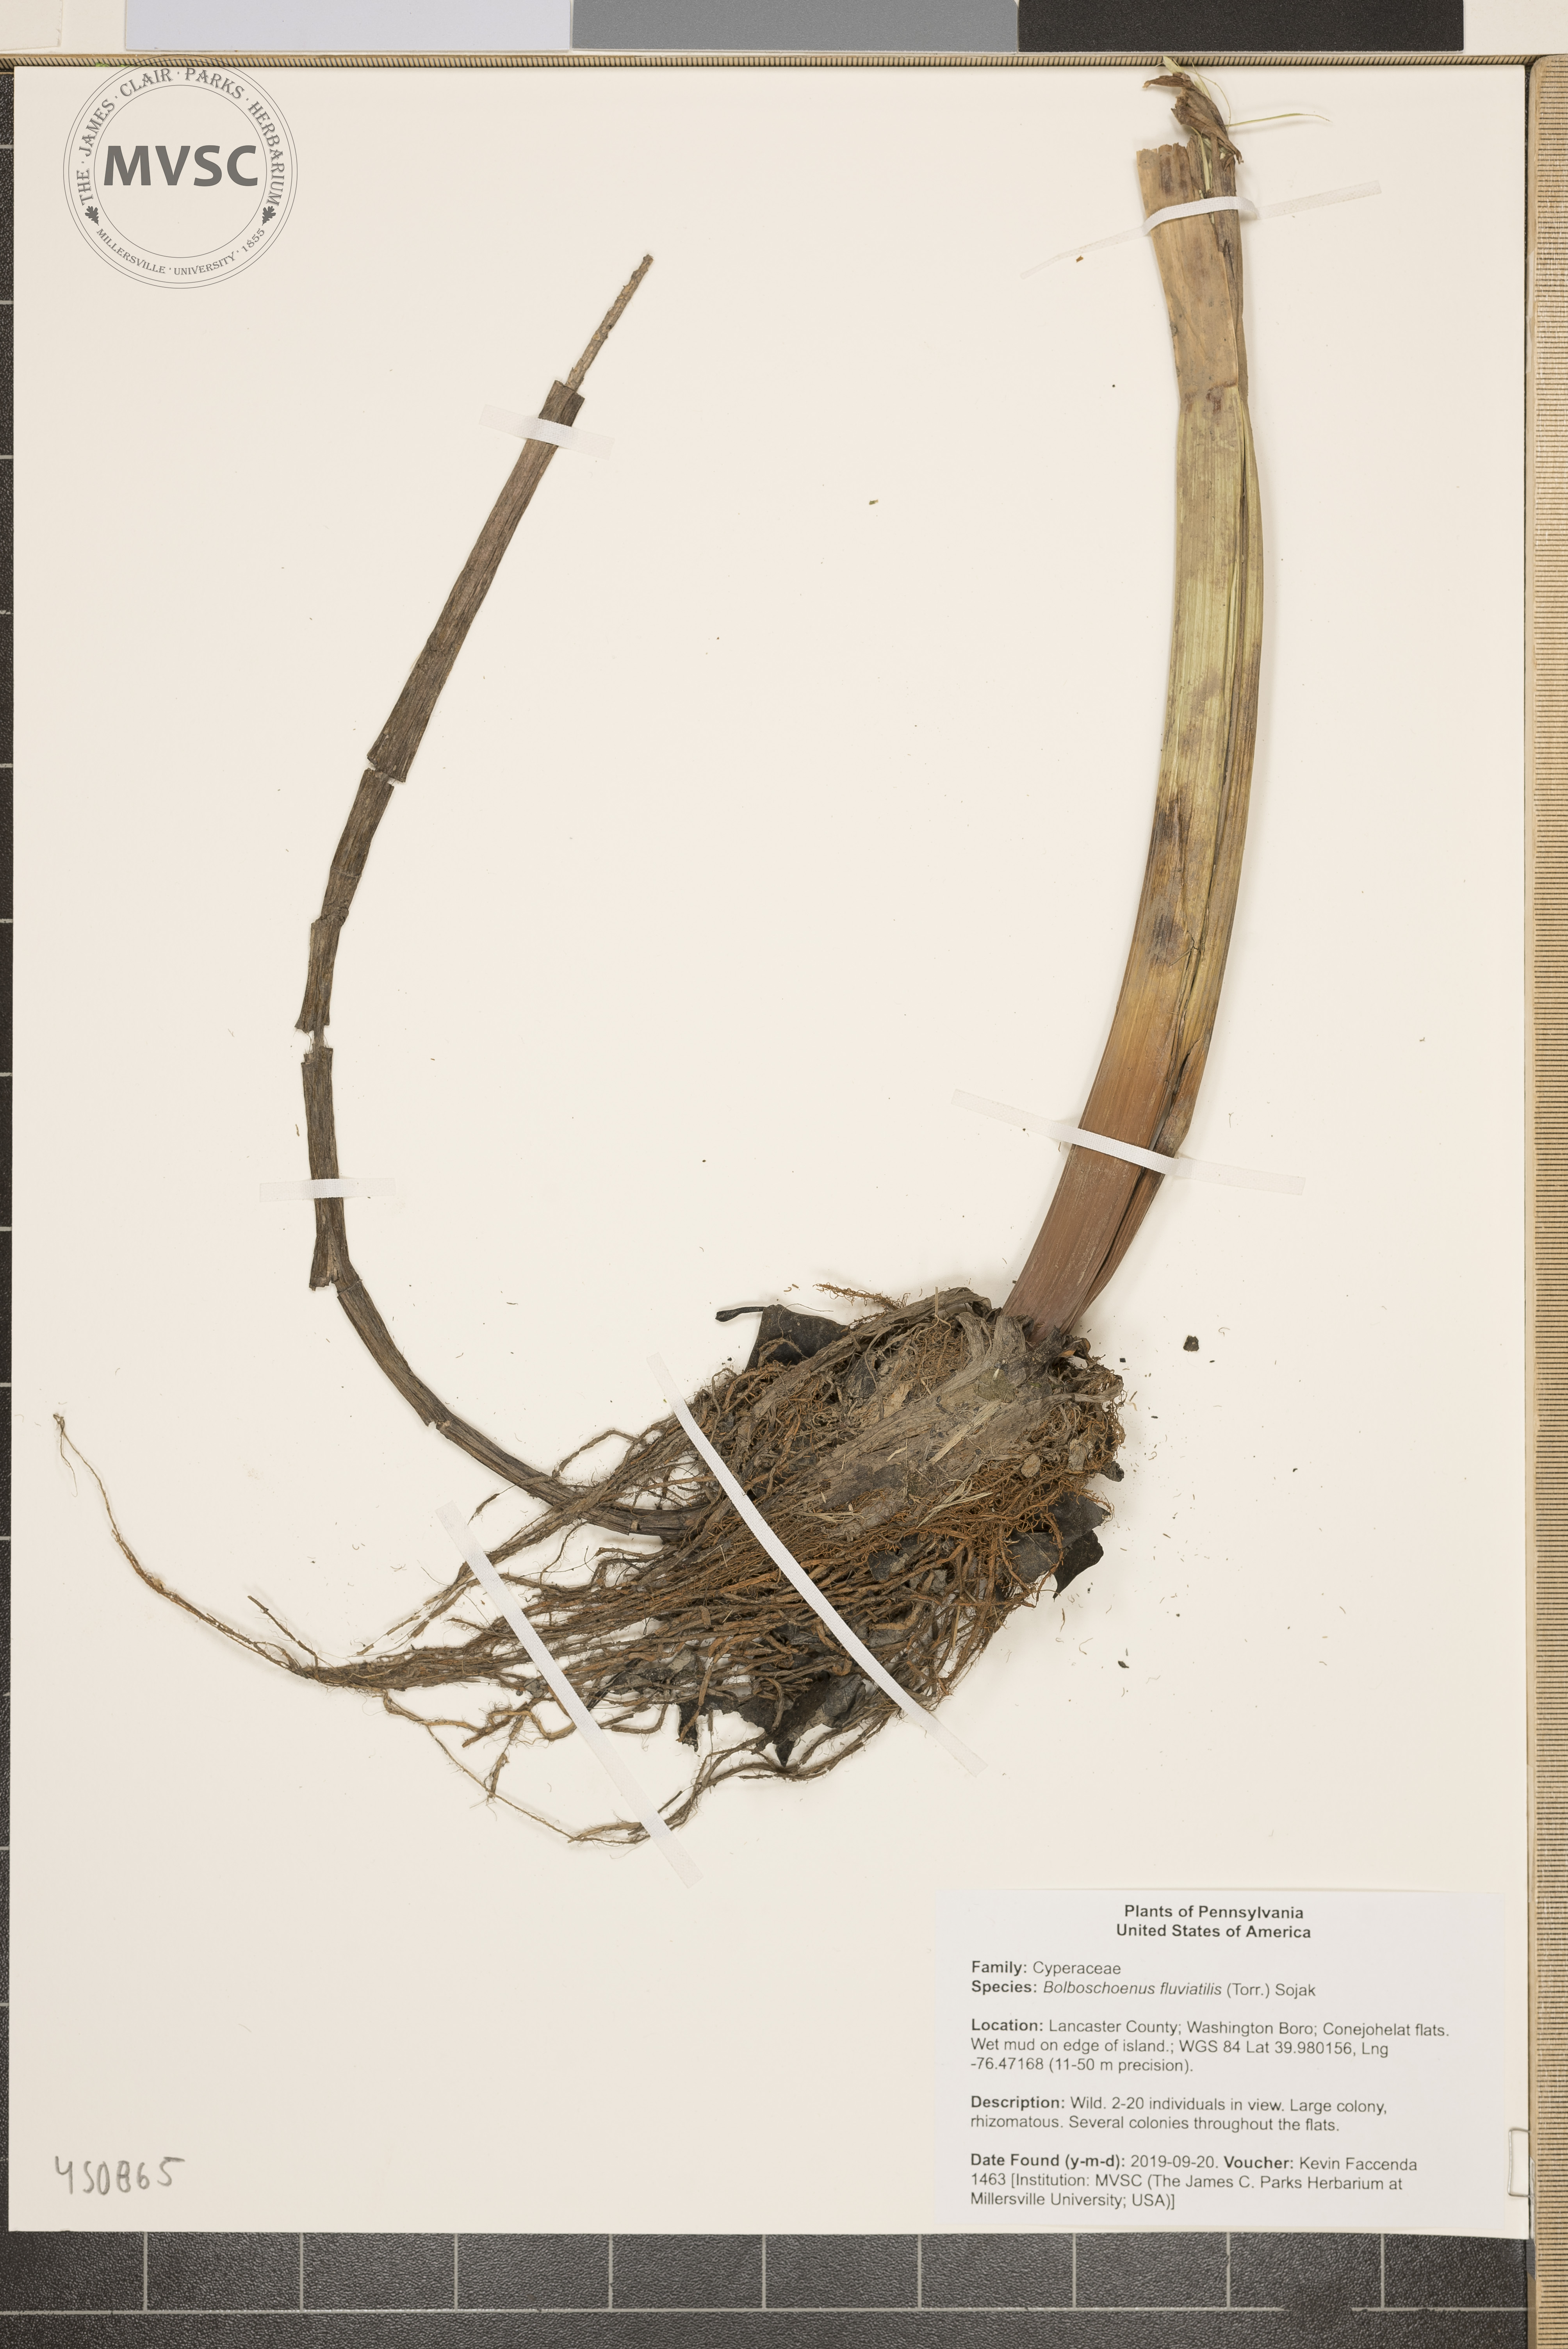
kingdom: Plantae
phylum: Tracheophyta
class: Liliopsida
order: Poales
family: Cyperaceae
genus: Bolboschoenus
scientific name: Bolboschoenus fluviatilis
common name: River bulrush
